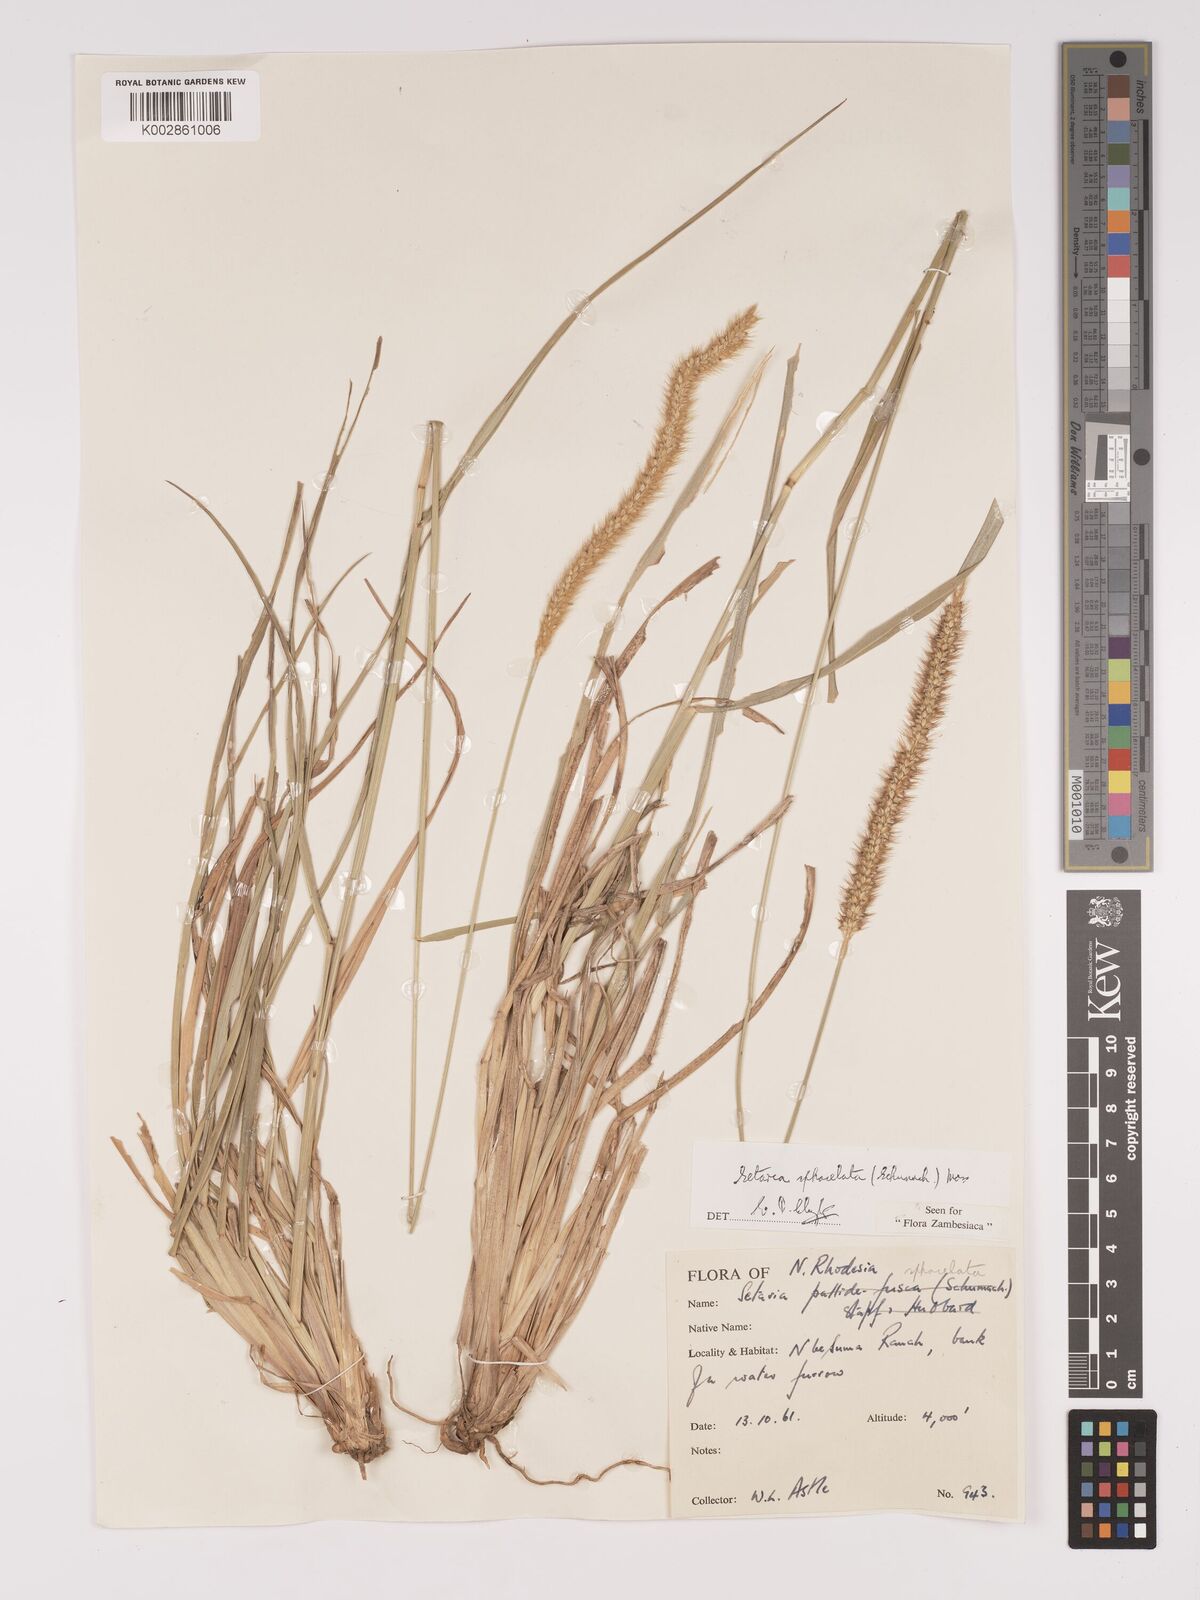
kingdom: Plantae
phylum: Tracheophyta
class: Liliopsida
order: Poales
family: Poaceae
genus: Setaria
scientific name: Setaria sphacelata
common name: African bristlegrass
